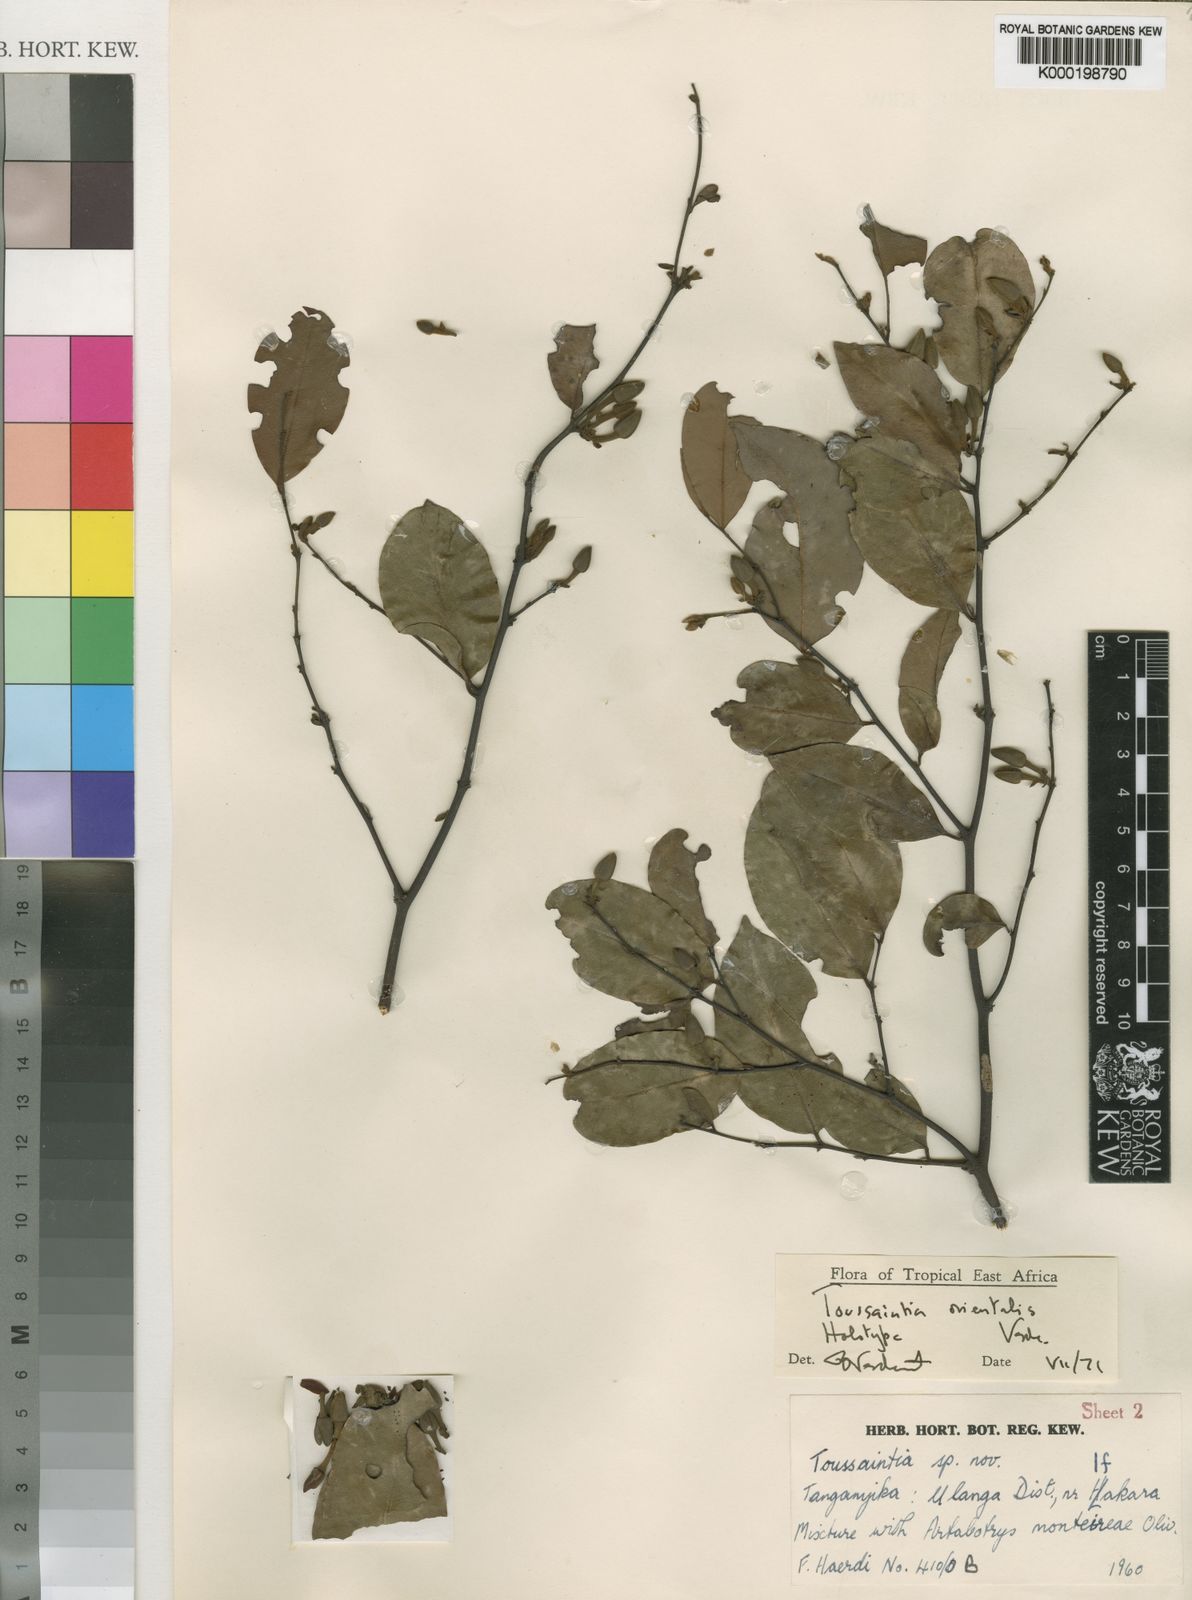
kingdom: Plantae
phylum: Tracheophyta
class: Magnoliopsida
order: Magnoliales
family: Annonaceae
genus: Toussaintia
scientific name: Toussaintia orientalis
